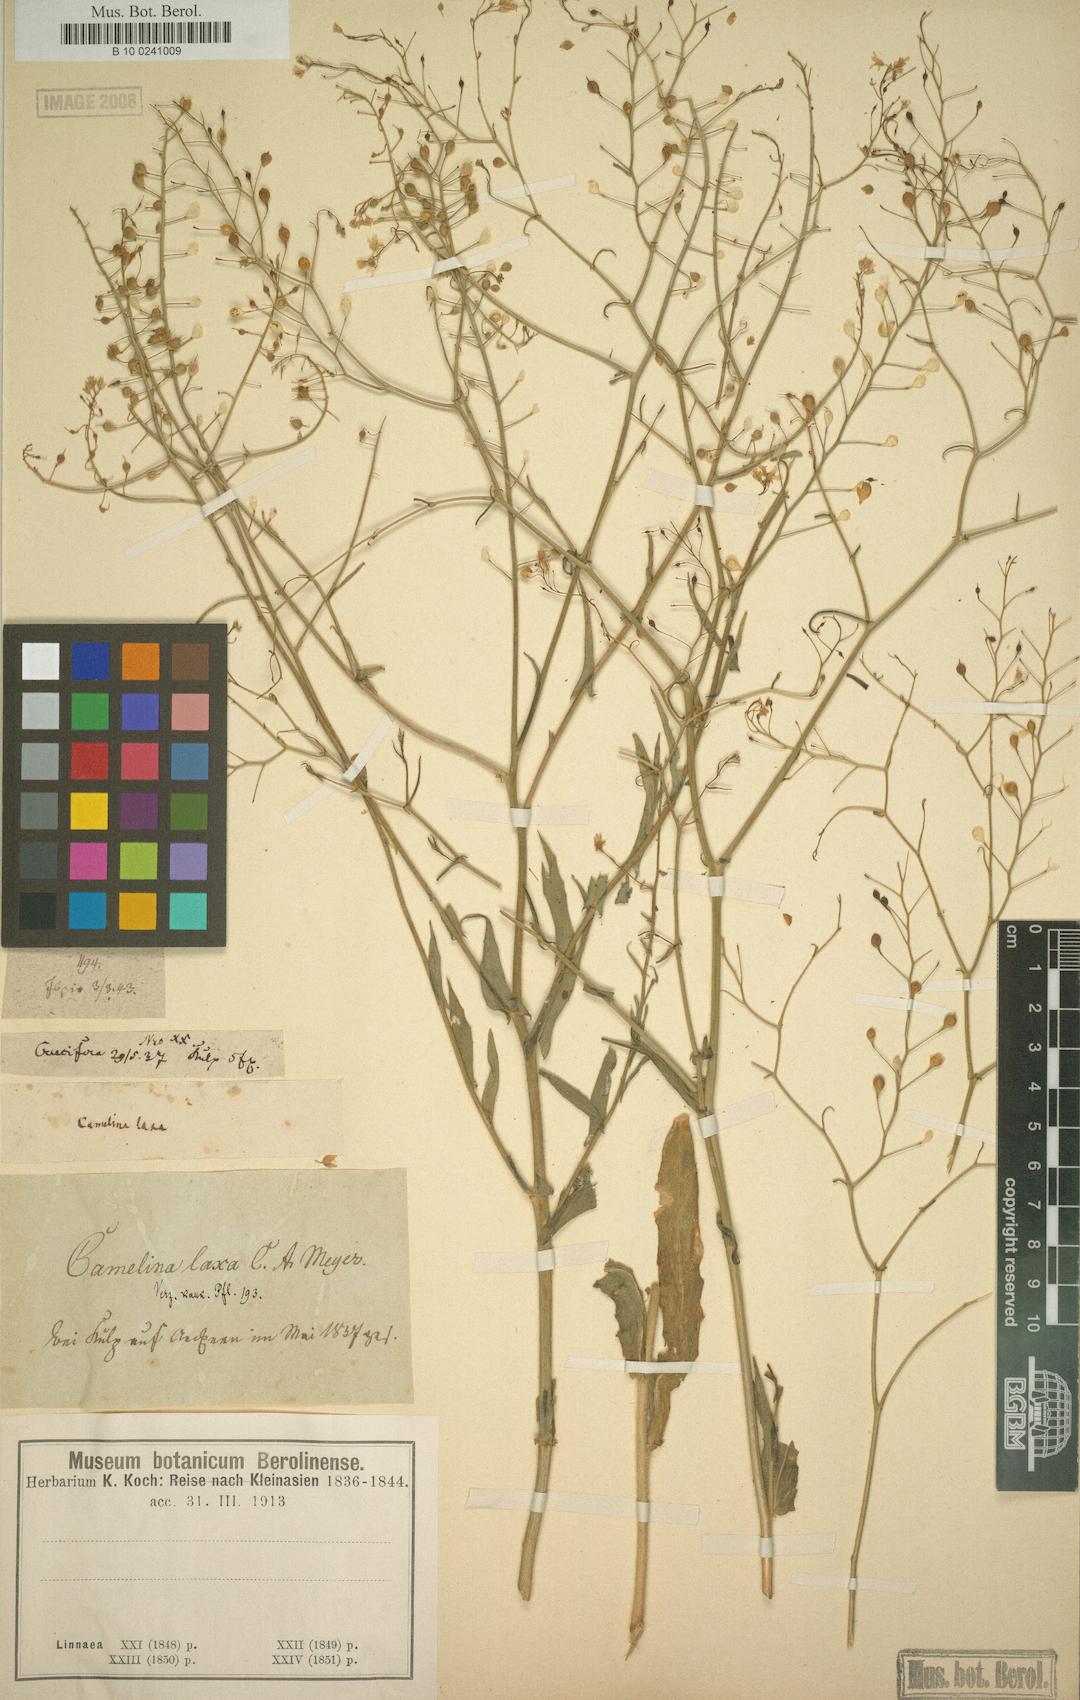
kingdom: Plantae
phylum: Tracheophyta
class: Magnoliopsida
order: Brassicales
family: Brassicaceae
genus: Camelina
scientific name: Camelina laxa
